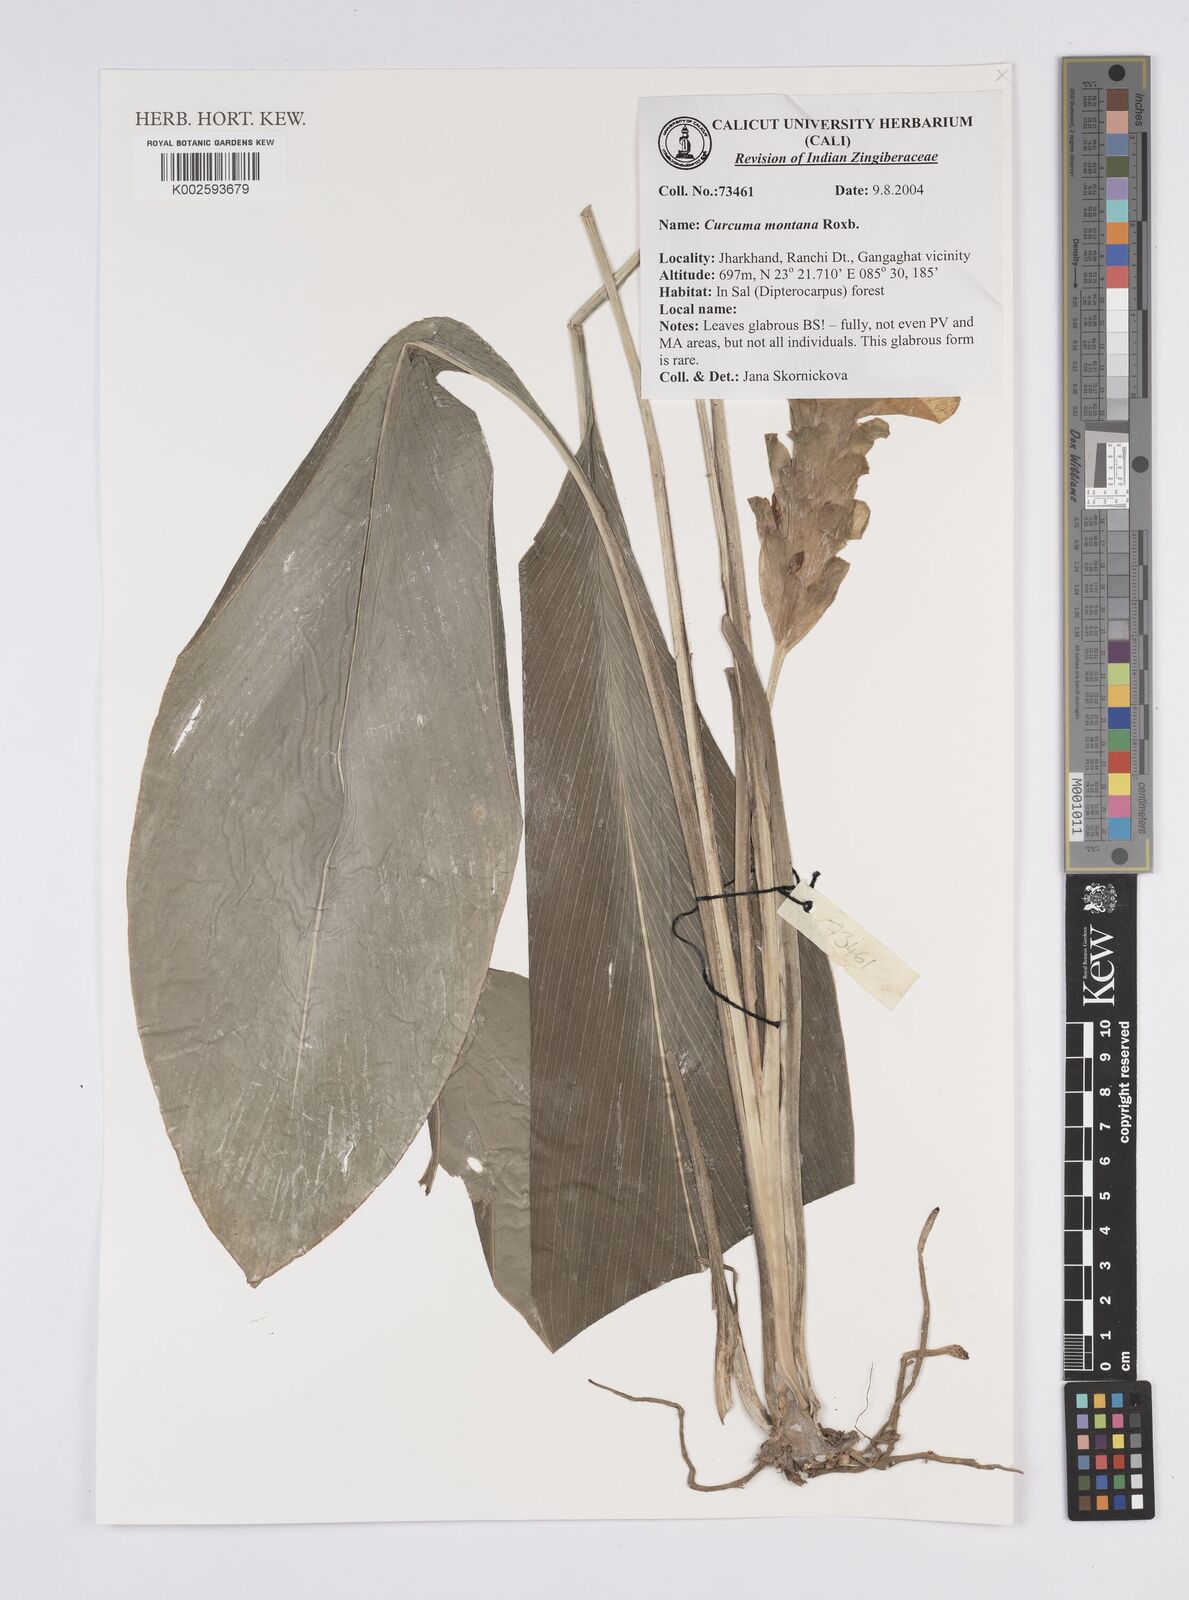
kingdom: Plantae
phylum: Tracheophyta
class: Liliopsida
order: Zingiberales
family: Zingiberaceae
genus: Curcuma
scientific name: Curcuma montana
